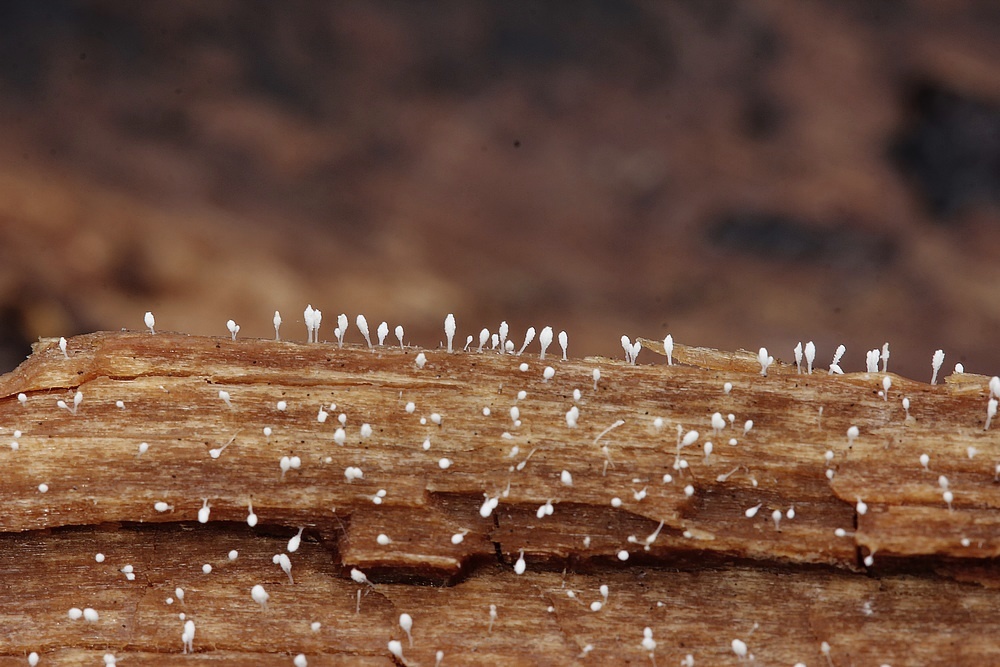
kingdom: Fungi
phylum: Basidiomycota
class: Agaricomycetes
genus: Riessia
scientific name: Riessia semiophora
